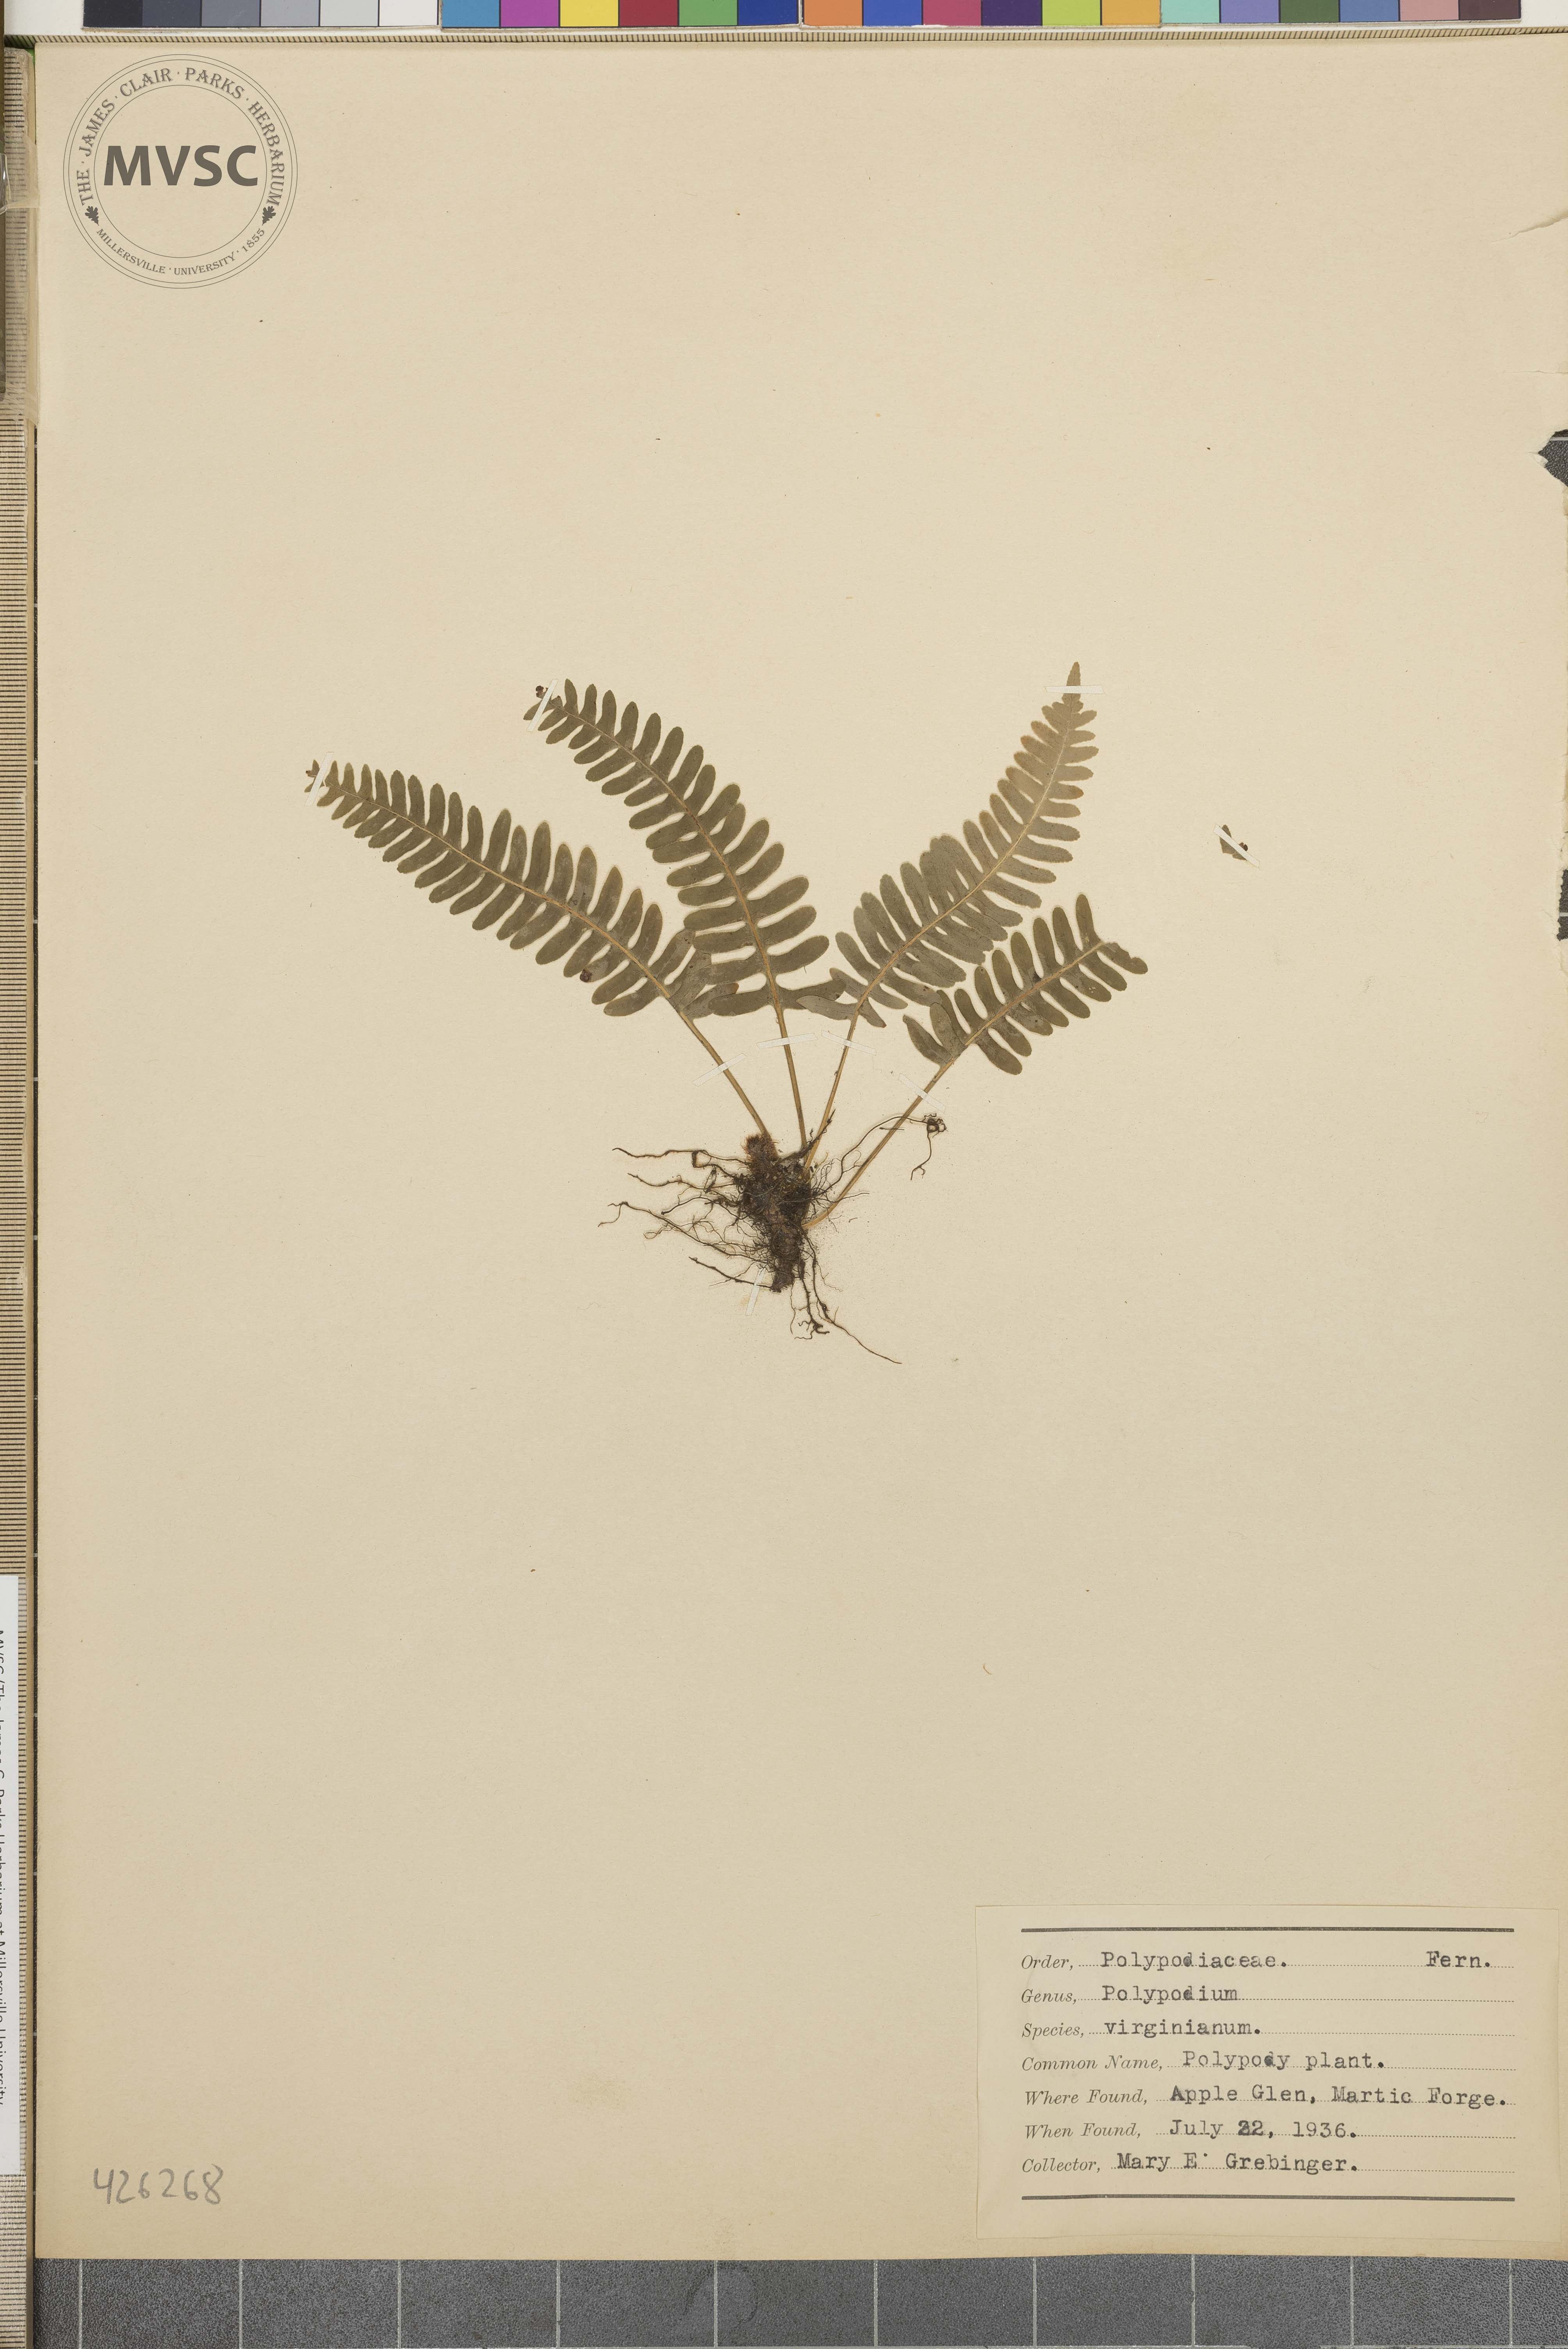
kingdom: Plantae
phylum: Tracheophyta
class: Polypodiopsida
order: Polypodiales
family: Polypodiaceae
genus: Polypodium
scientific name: Polypodium virginianum
